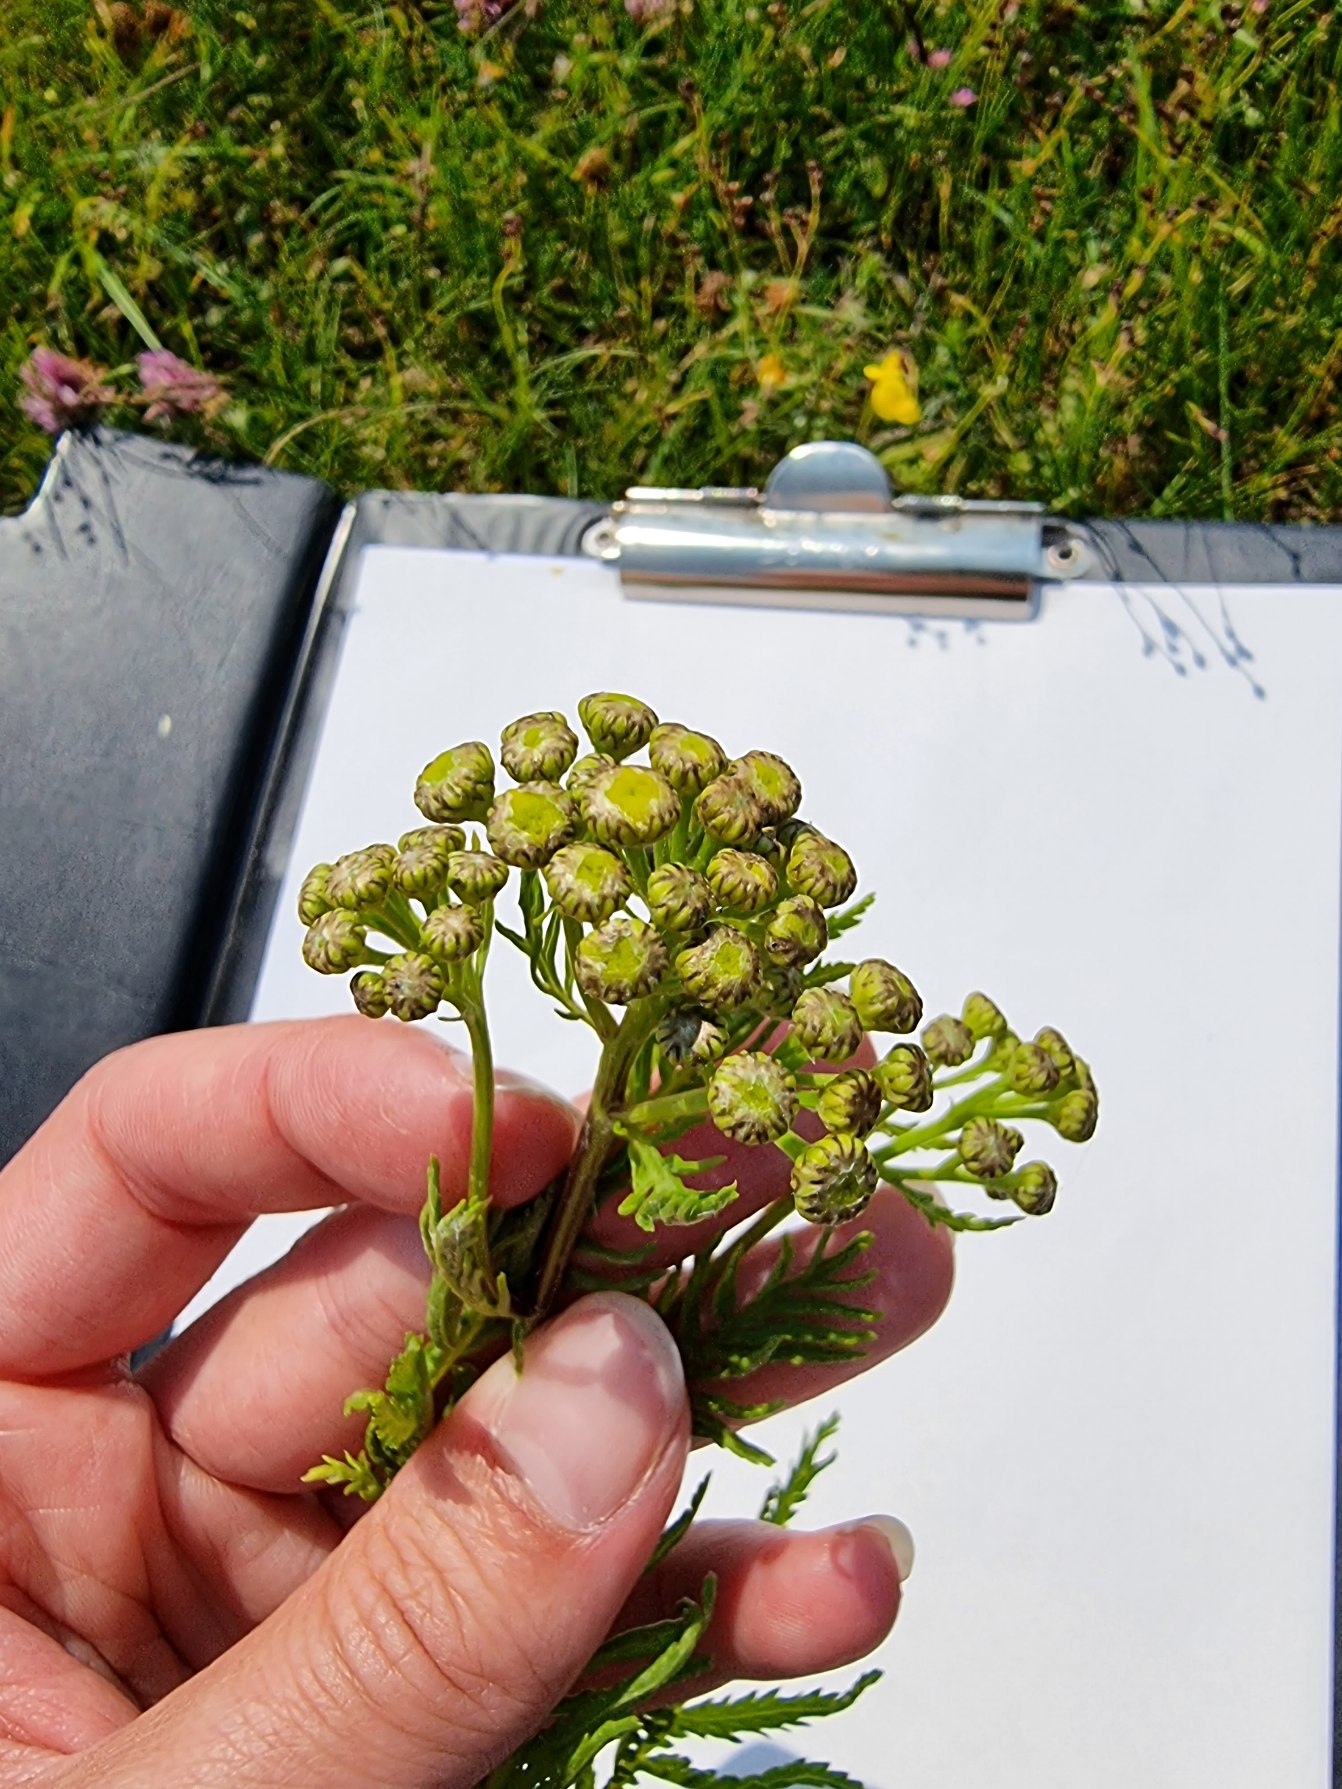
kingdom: Plantae
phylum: Tracheophyta
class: Magnoliopsida
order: Asterales
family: Asteraceae
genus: Tanacetum
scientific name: Tanacetum vulgare
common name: Rejnfan
